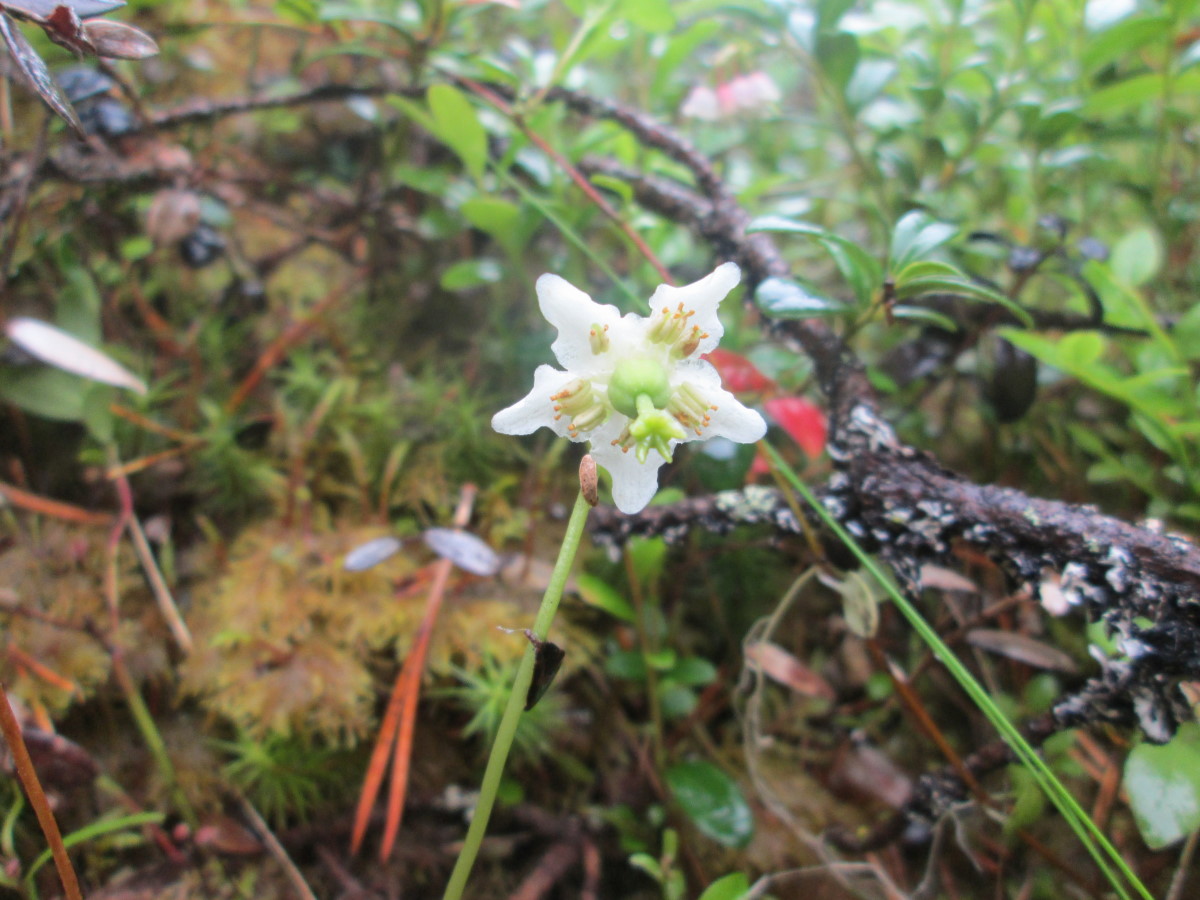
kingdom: Plantae
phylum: Tracheophyta
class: Magnoliopsida
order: Ericales
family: Ericaceae
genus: Moneses
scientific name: Moneses uniflora
